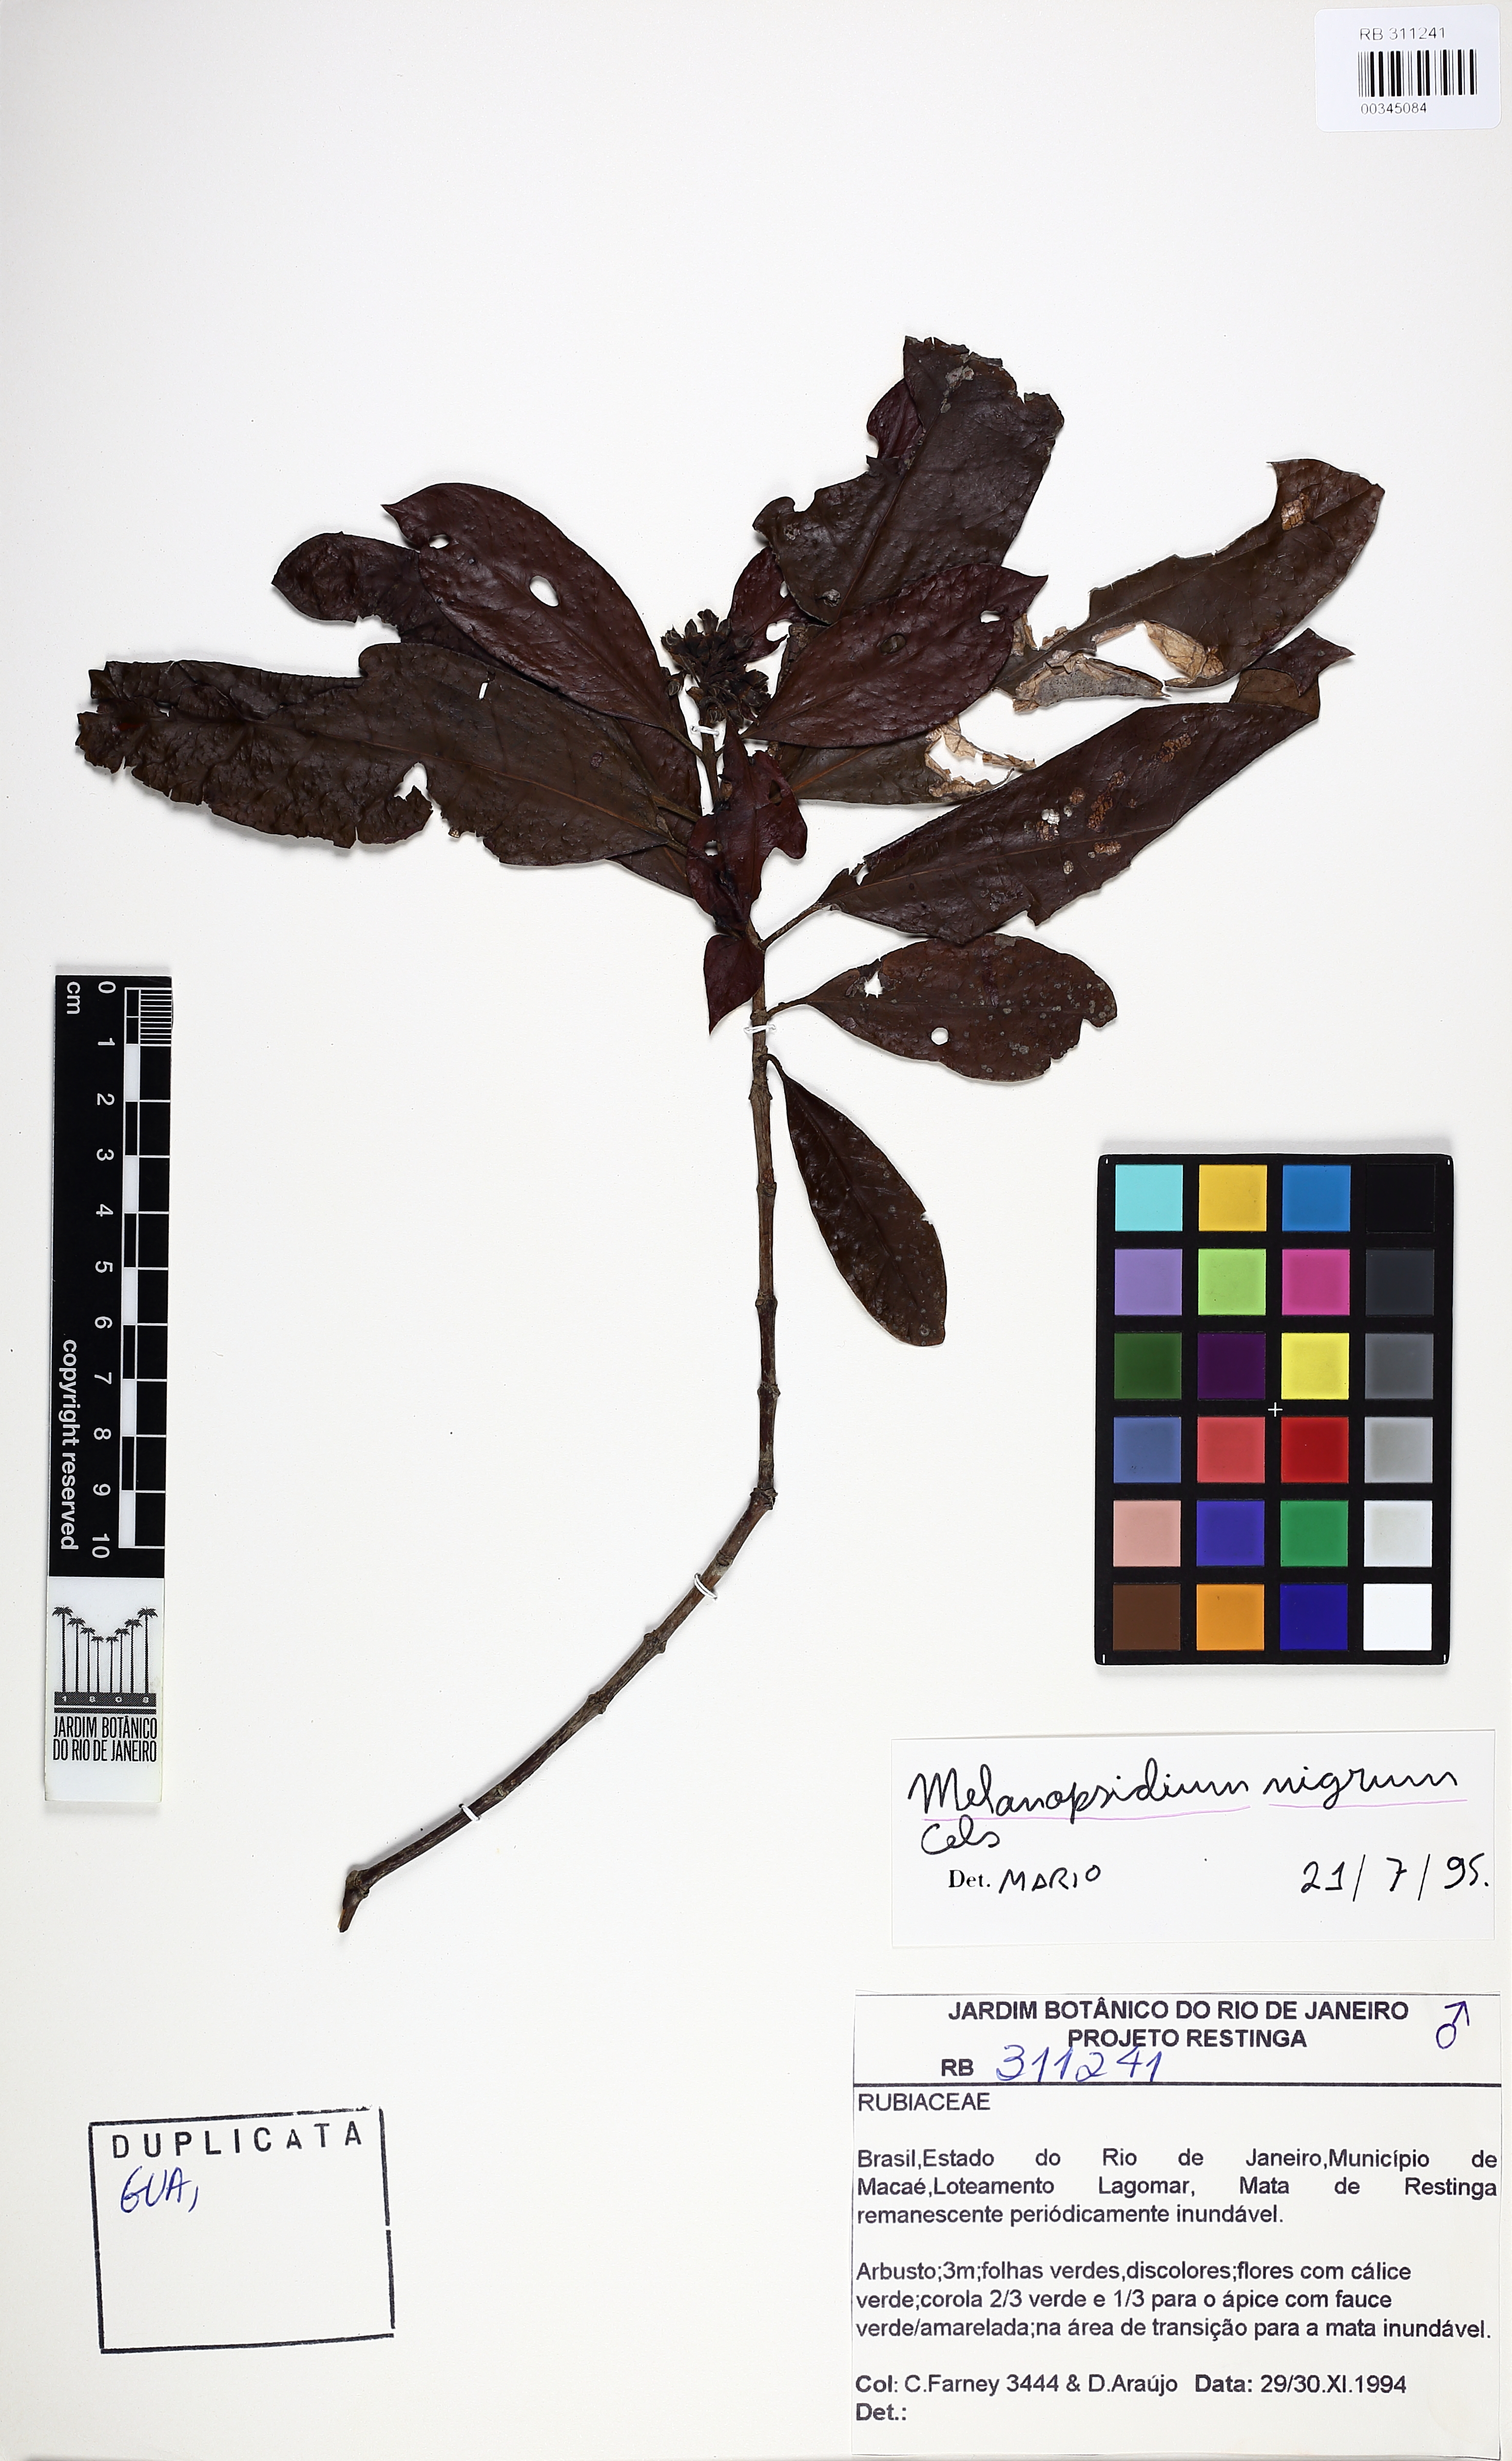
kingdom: Plantae
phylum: Tracheophyta
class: Magnoliopsida
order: Gentianales
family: Rubiaceae
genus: Melanopsidium
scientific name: Melanopsidium nigrum
